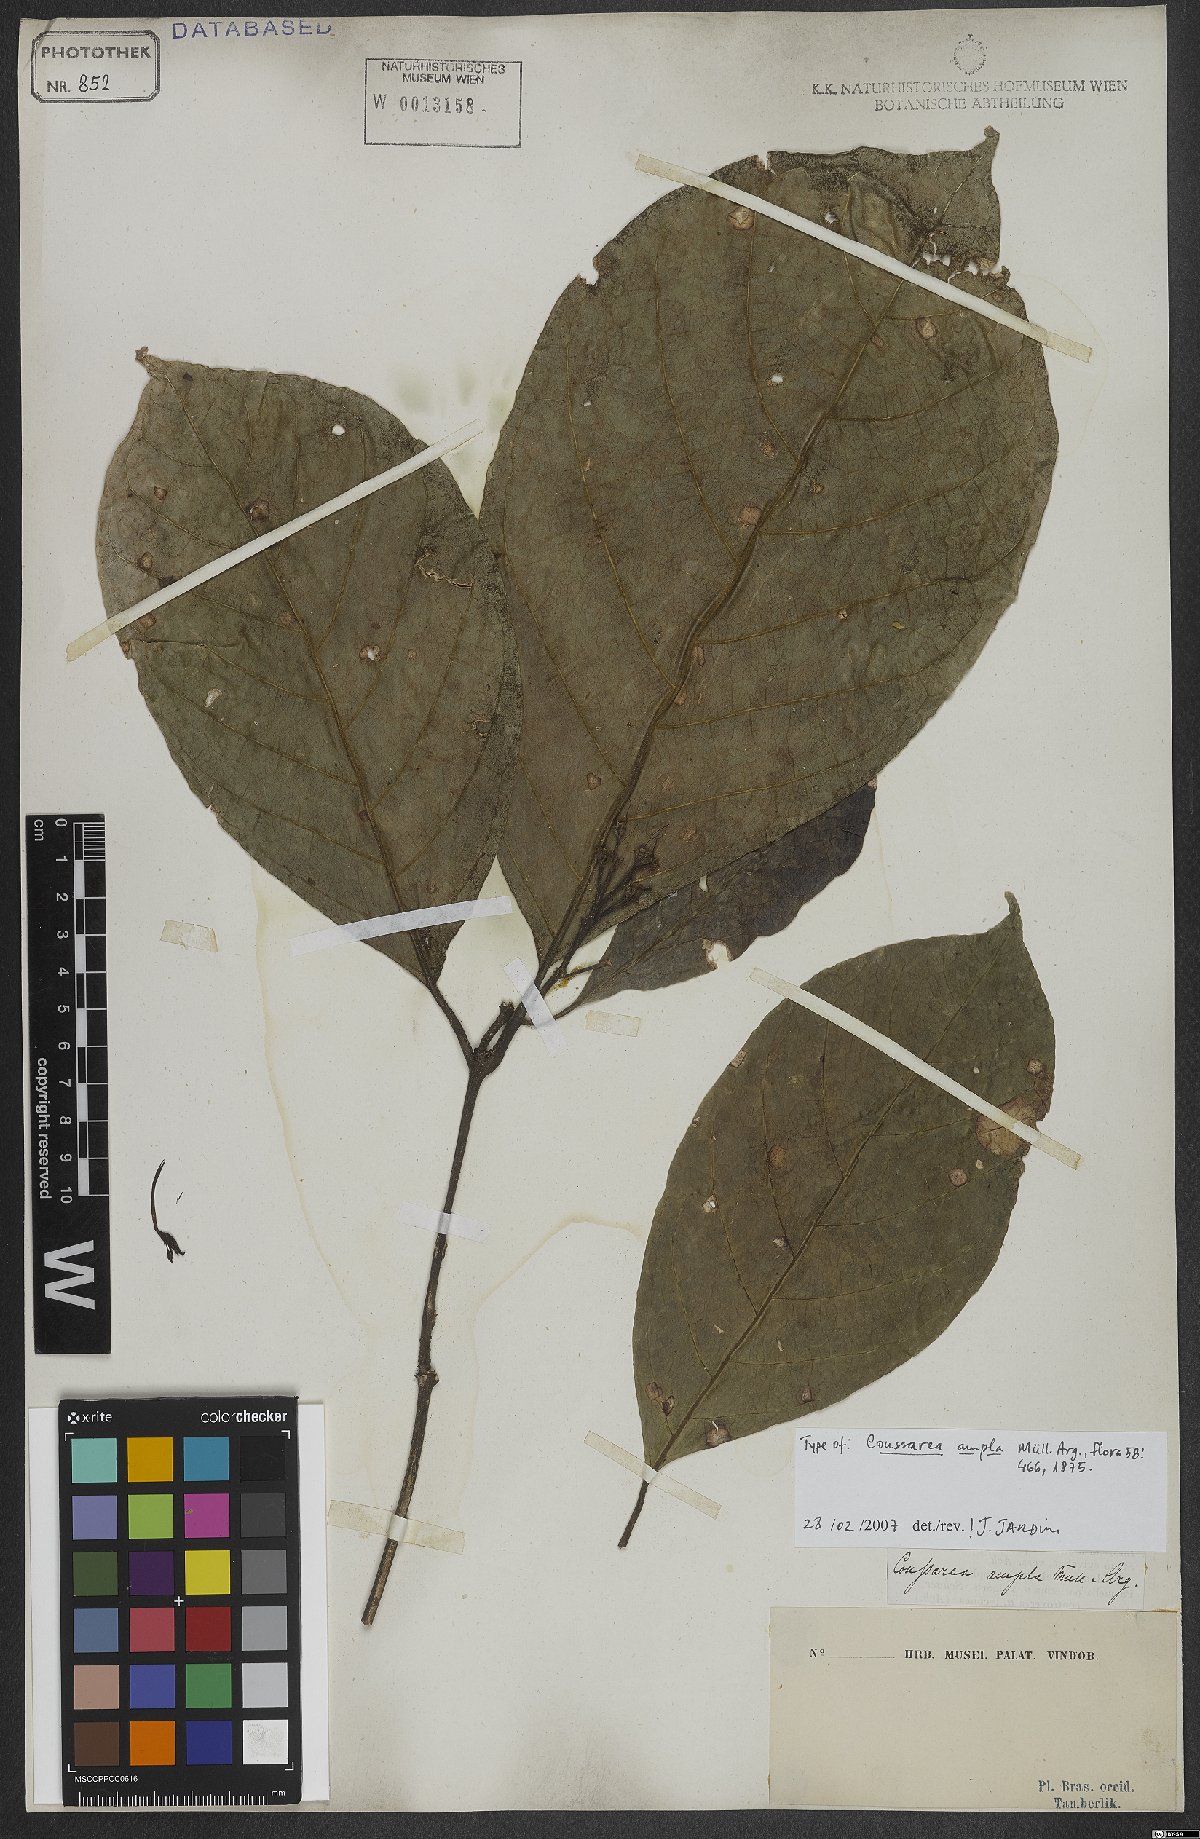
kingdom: Plantae
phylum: Tracheophyta
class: Magnoliopsida
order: Gentianales
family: Rubiaceae
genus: Coussarea
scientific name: Coussarea ampla
